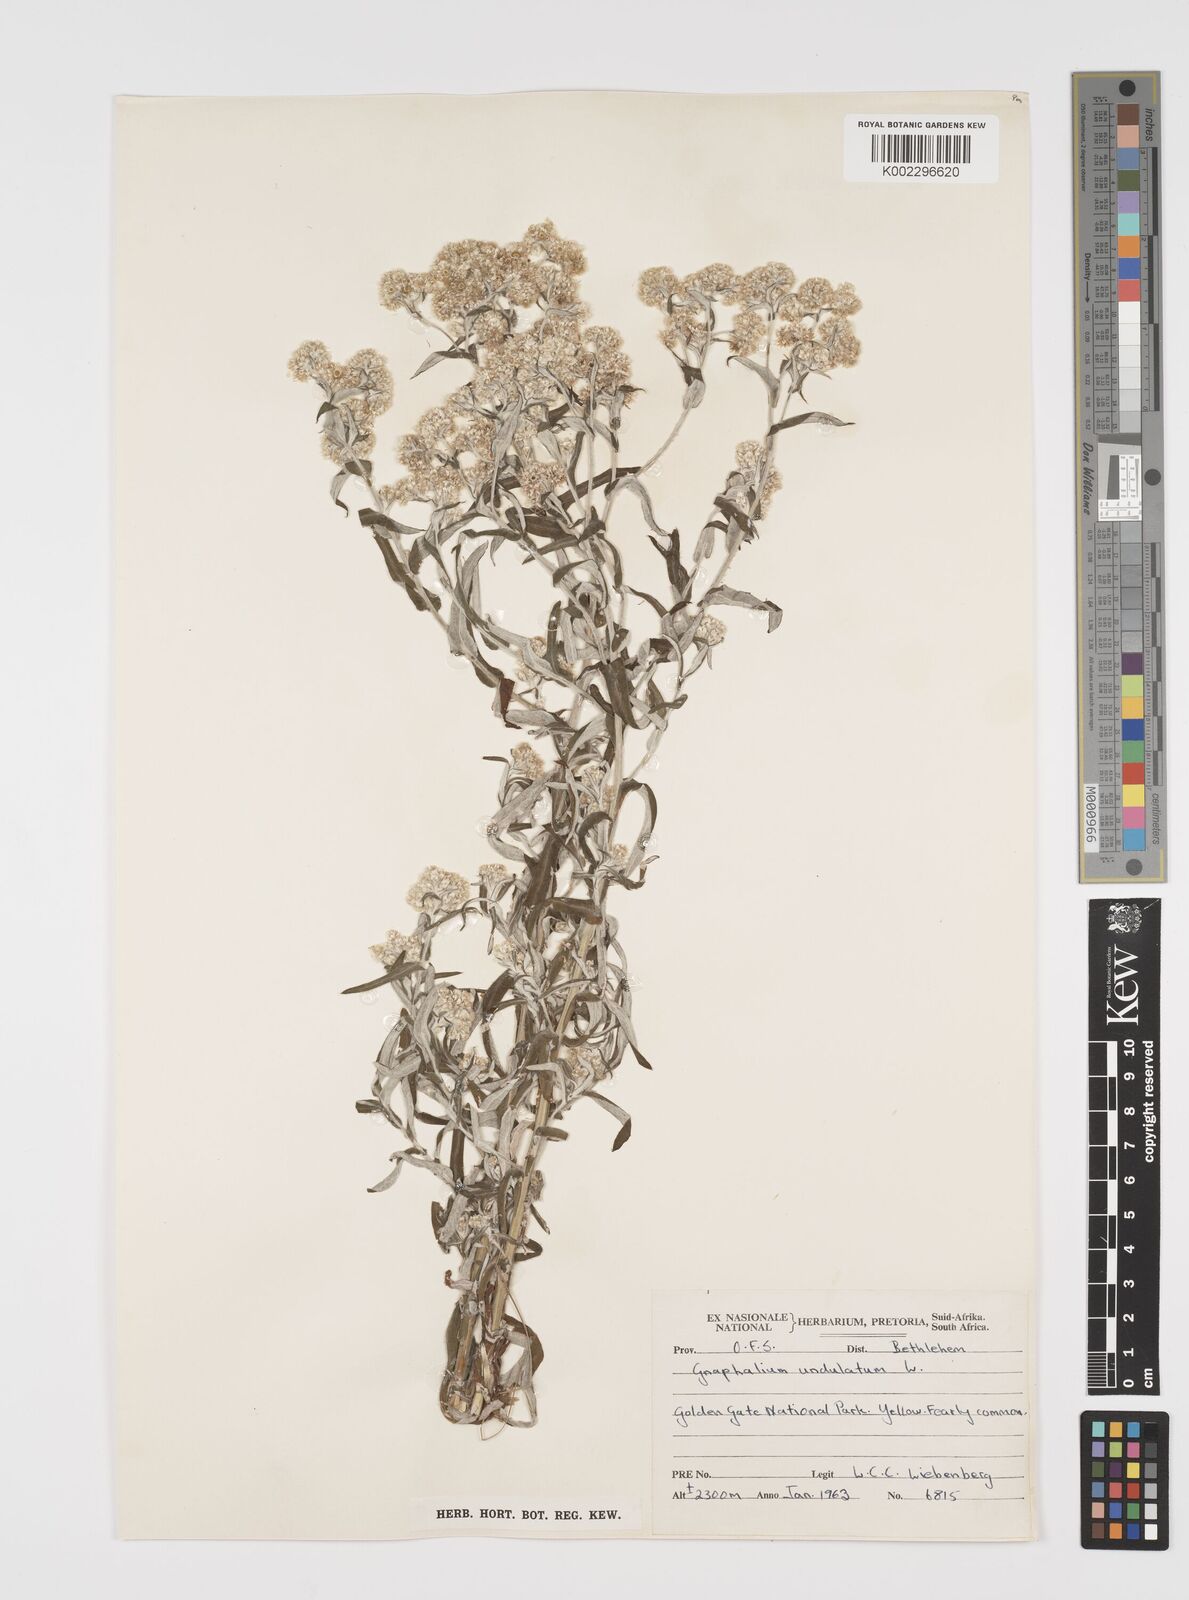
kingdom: Plantae
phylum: Tracheophyta
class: Magnoliopsida
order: Asterales
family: Asteraceae
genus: Pseudognaphalium
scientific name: Pseudognaphalium undulatum
